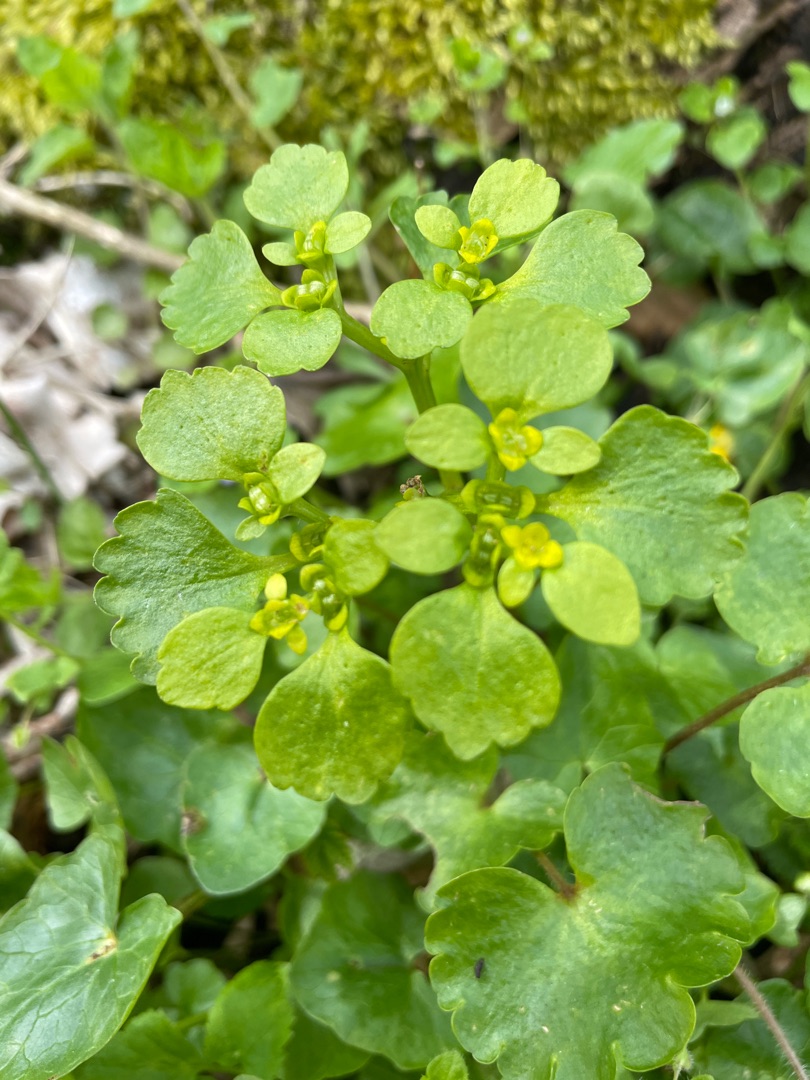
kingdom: Plantae
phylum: Tracheophyta
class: Magnoliopsida
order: Saxifragales
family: Saxifragaceae
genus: Chrysosplenium
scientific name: Chrysosplenium alternifolium
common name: Almindelig milturt
